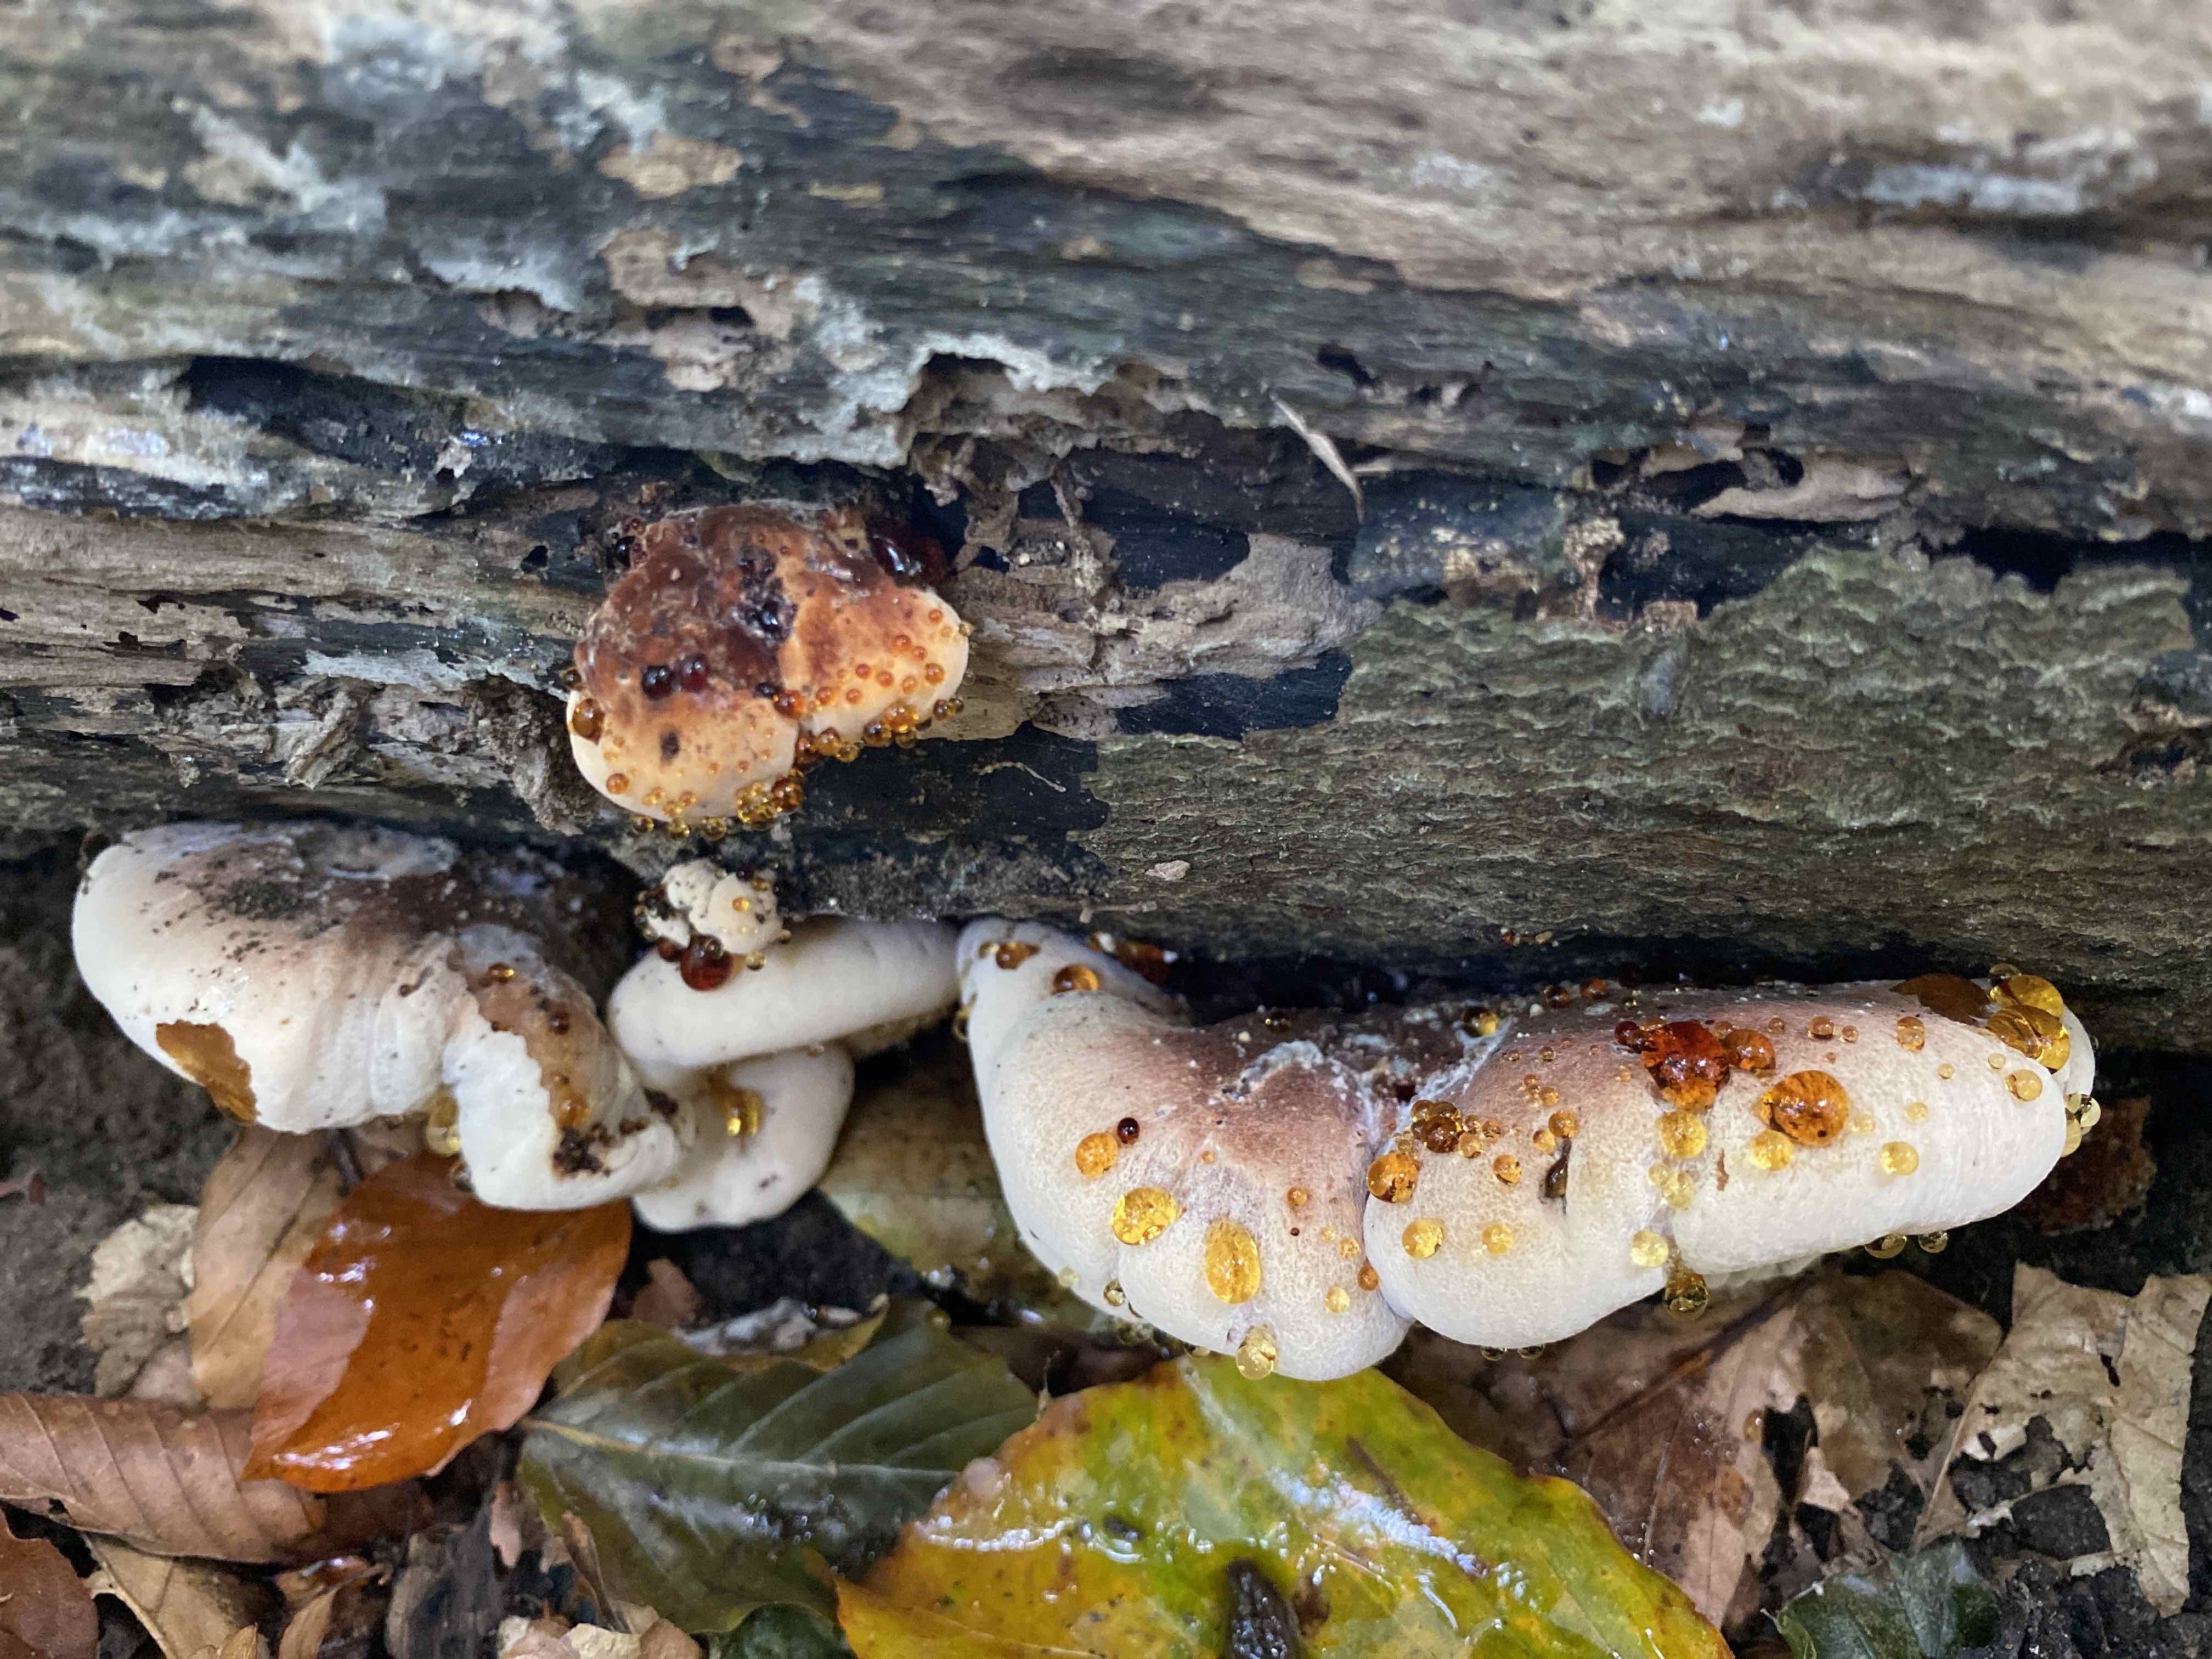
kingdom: Fungi
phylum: Basidiomycota
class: Agaricomycetes
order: Polyporales
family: Ischnodermataceae
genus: Ischnoderma
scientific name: Ischnoderma resinosum
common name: løv-tjæreporesvamp
